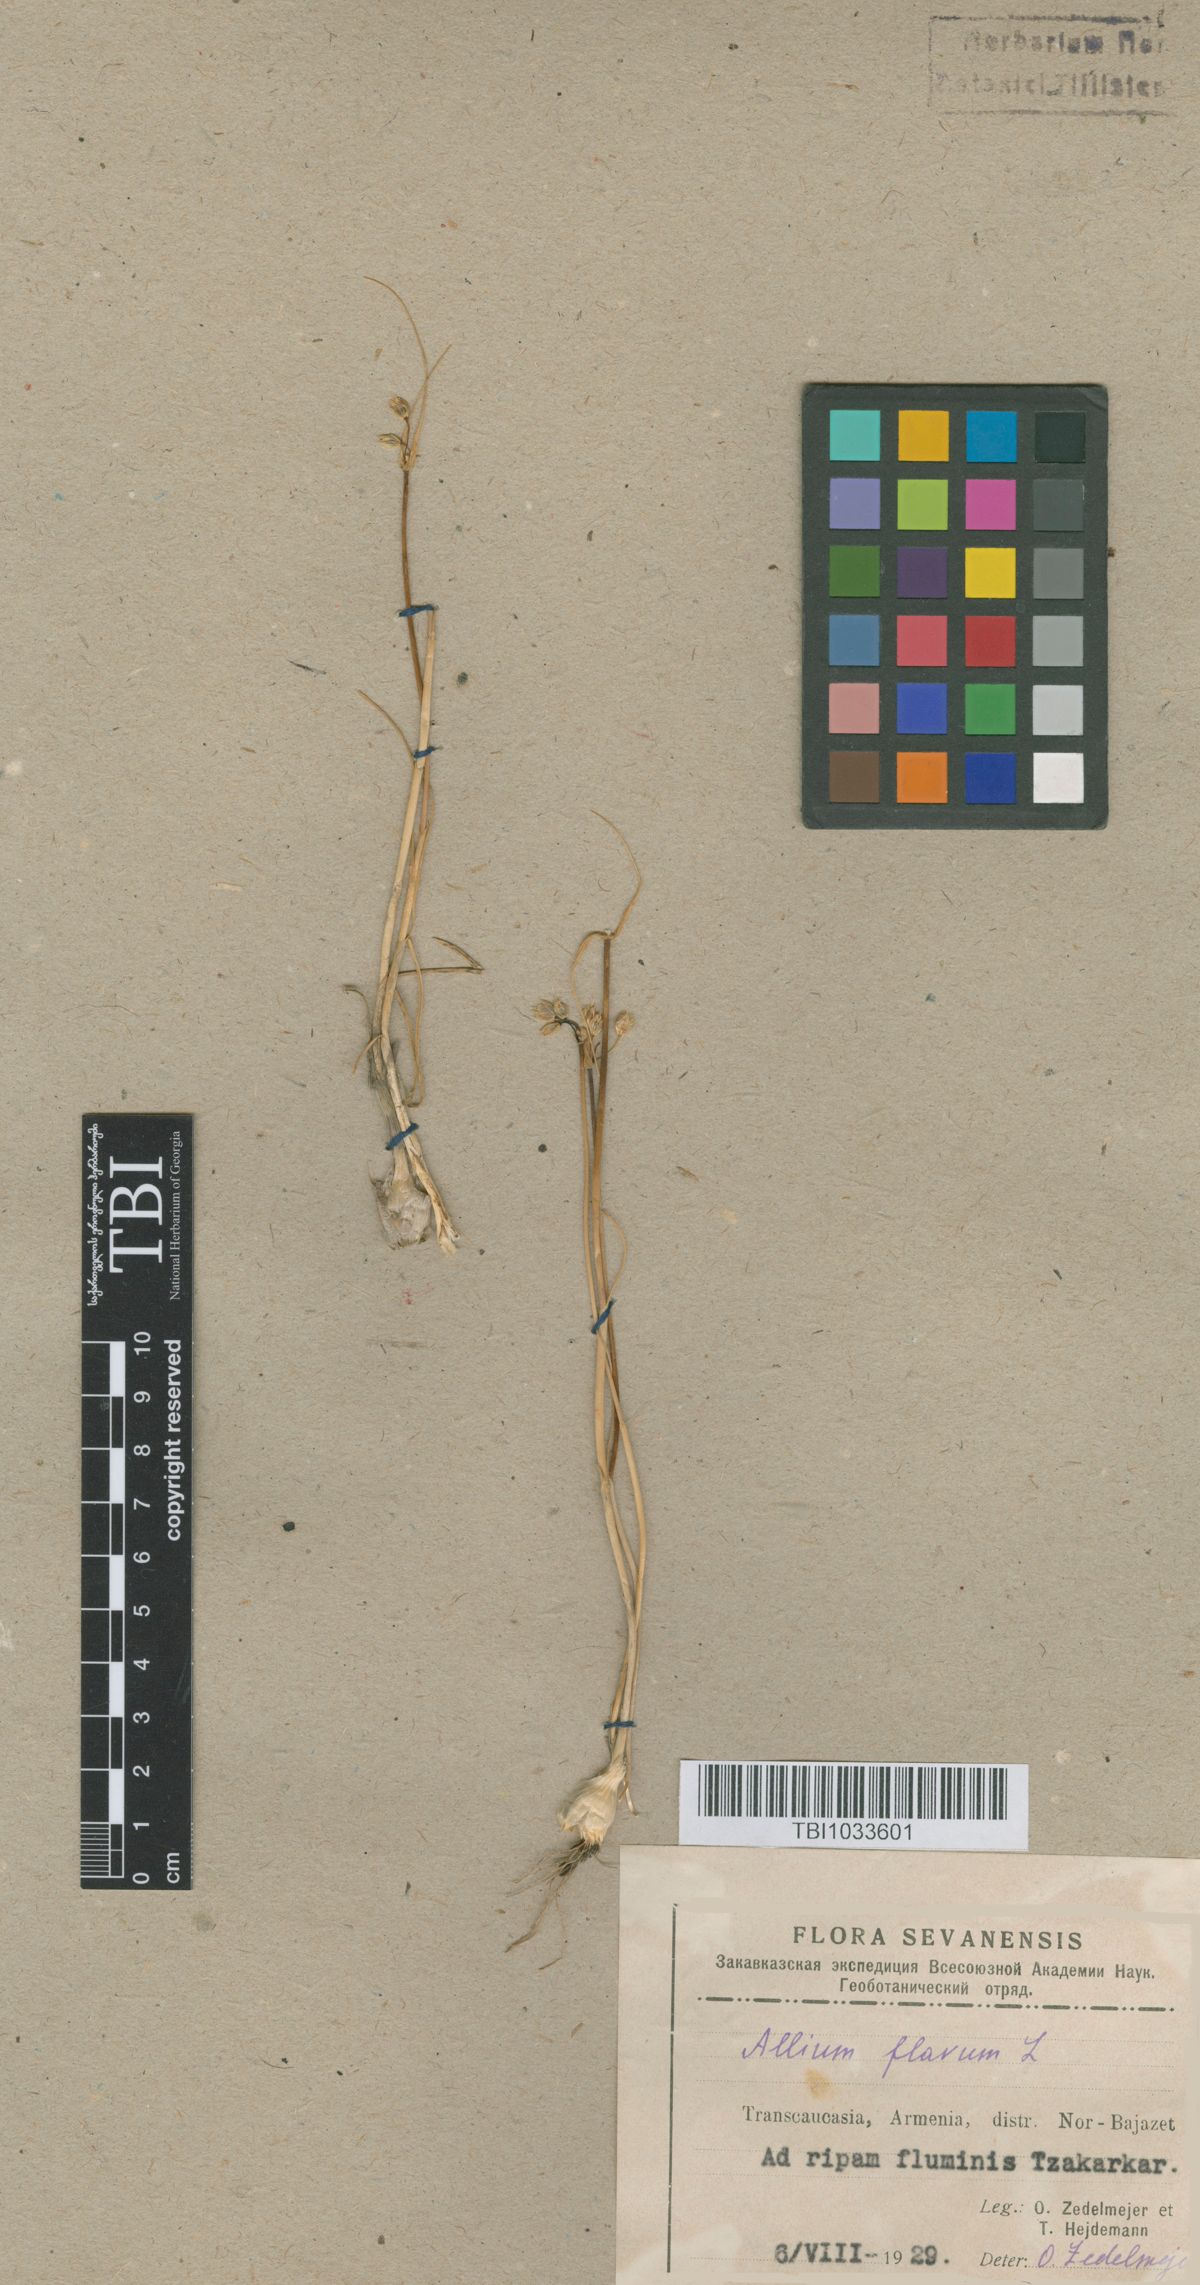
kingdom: Plantae
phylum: Tracheophyta
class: Magnoliopsida
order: Asterales
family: Campanulaceae
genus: Asyneuma
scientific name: Asyneuma campanuloides
